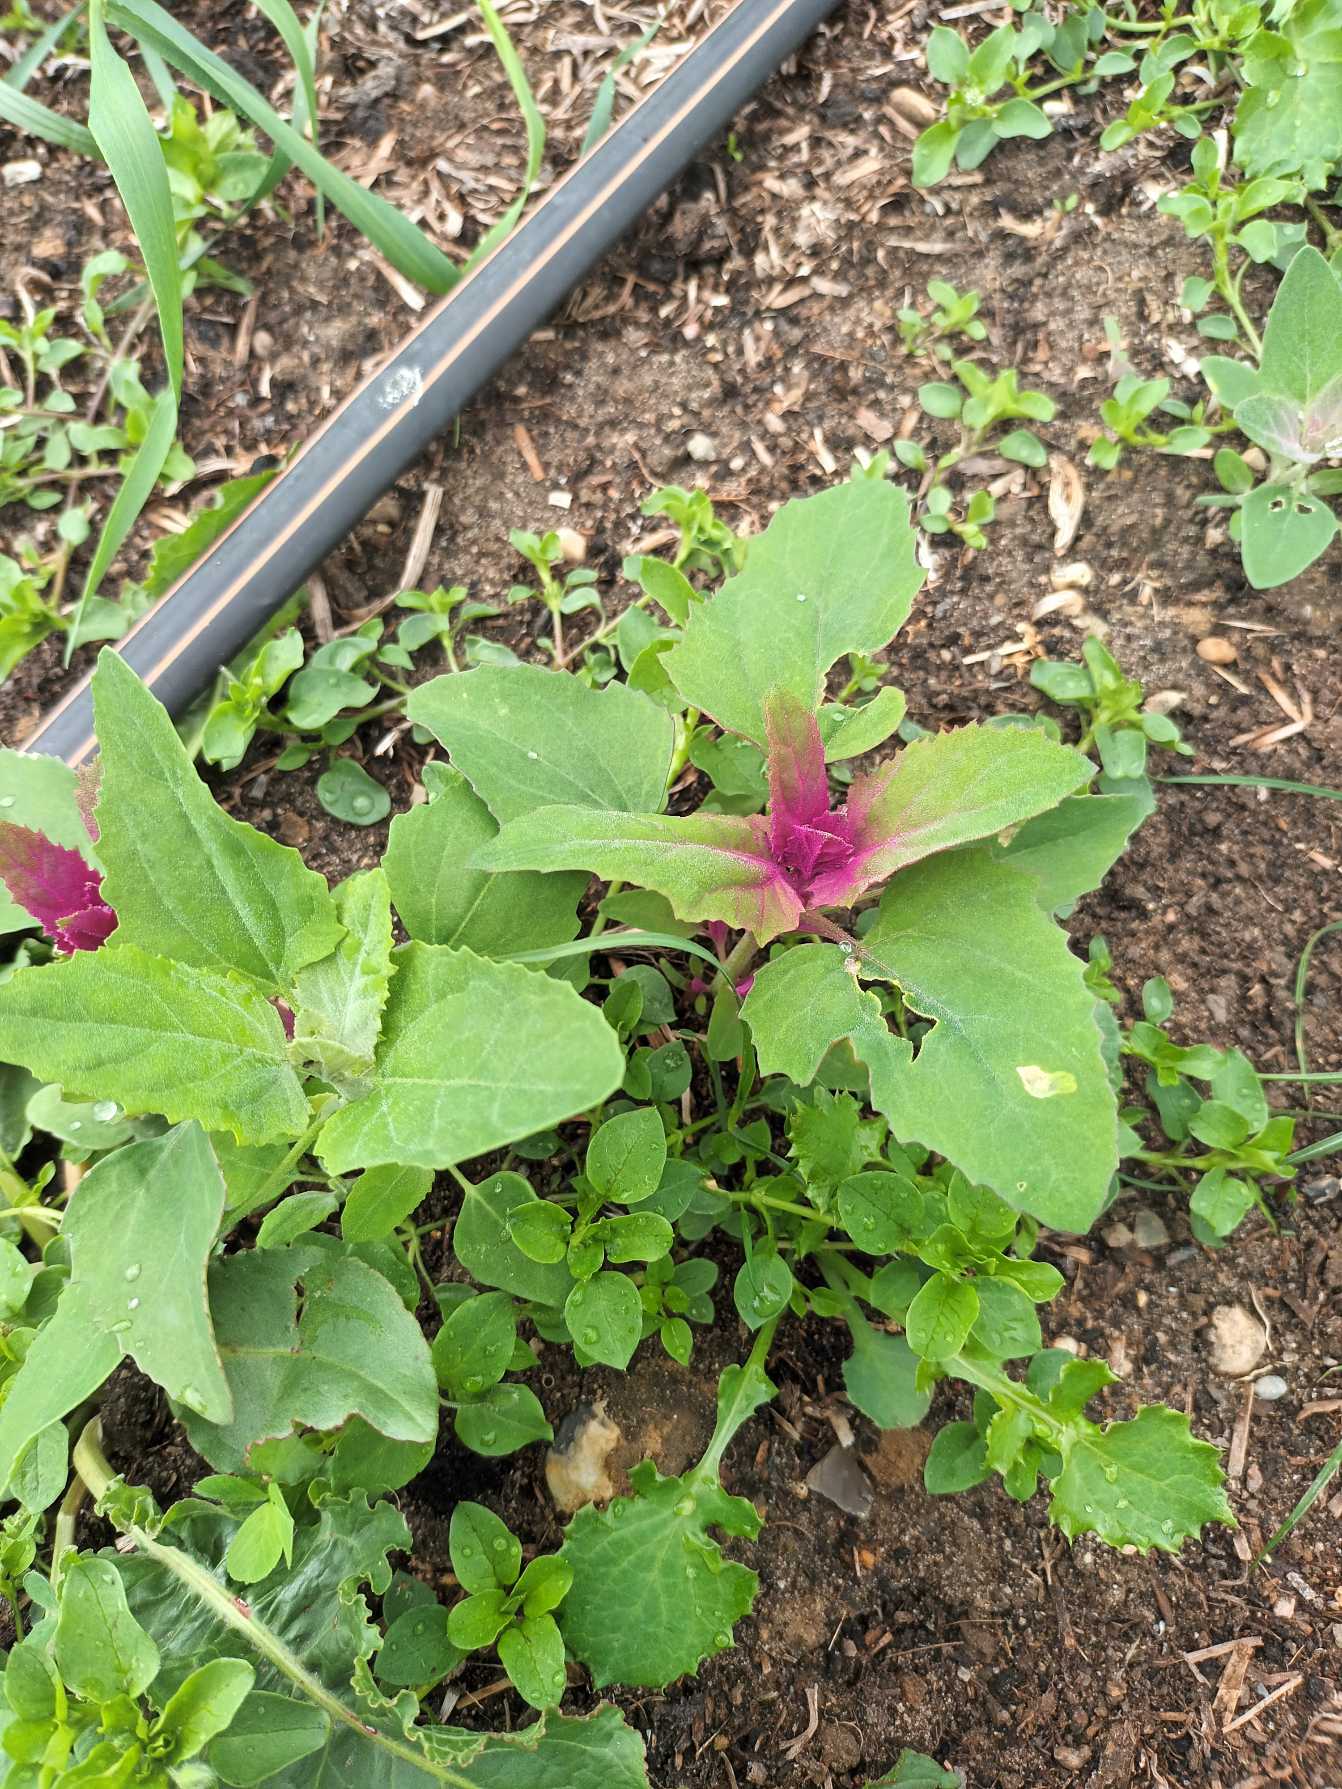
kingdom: Plantae
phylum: Tracheophyta
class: Magnoliopsida
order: Caryophyllales
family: Amaranthaceae
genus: Chenopodium
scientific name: Chenopodium giganteum
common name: Kæmpe-gåsefod
